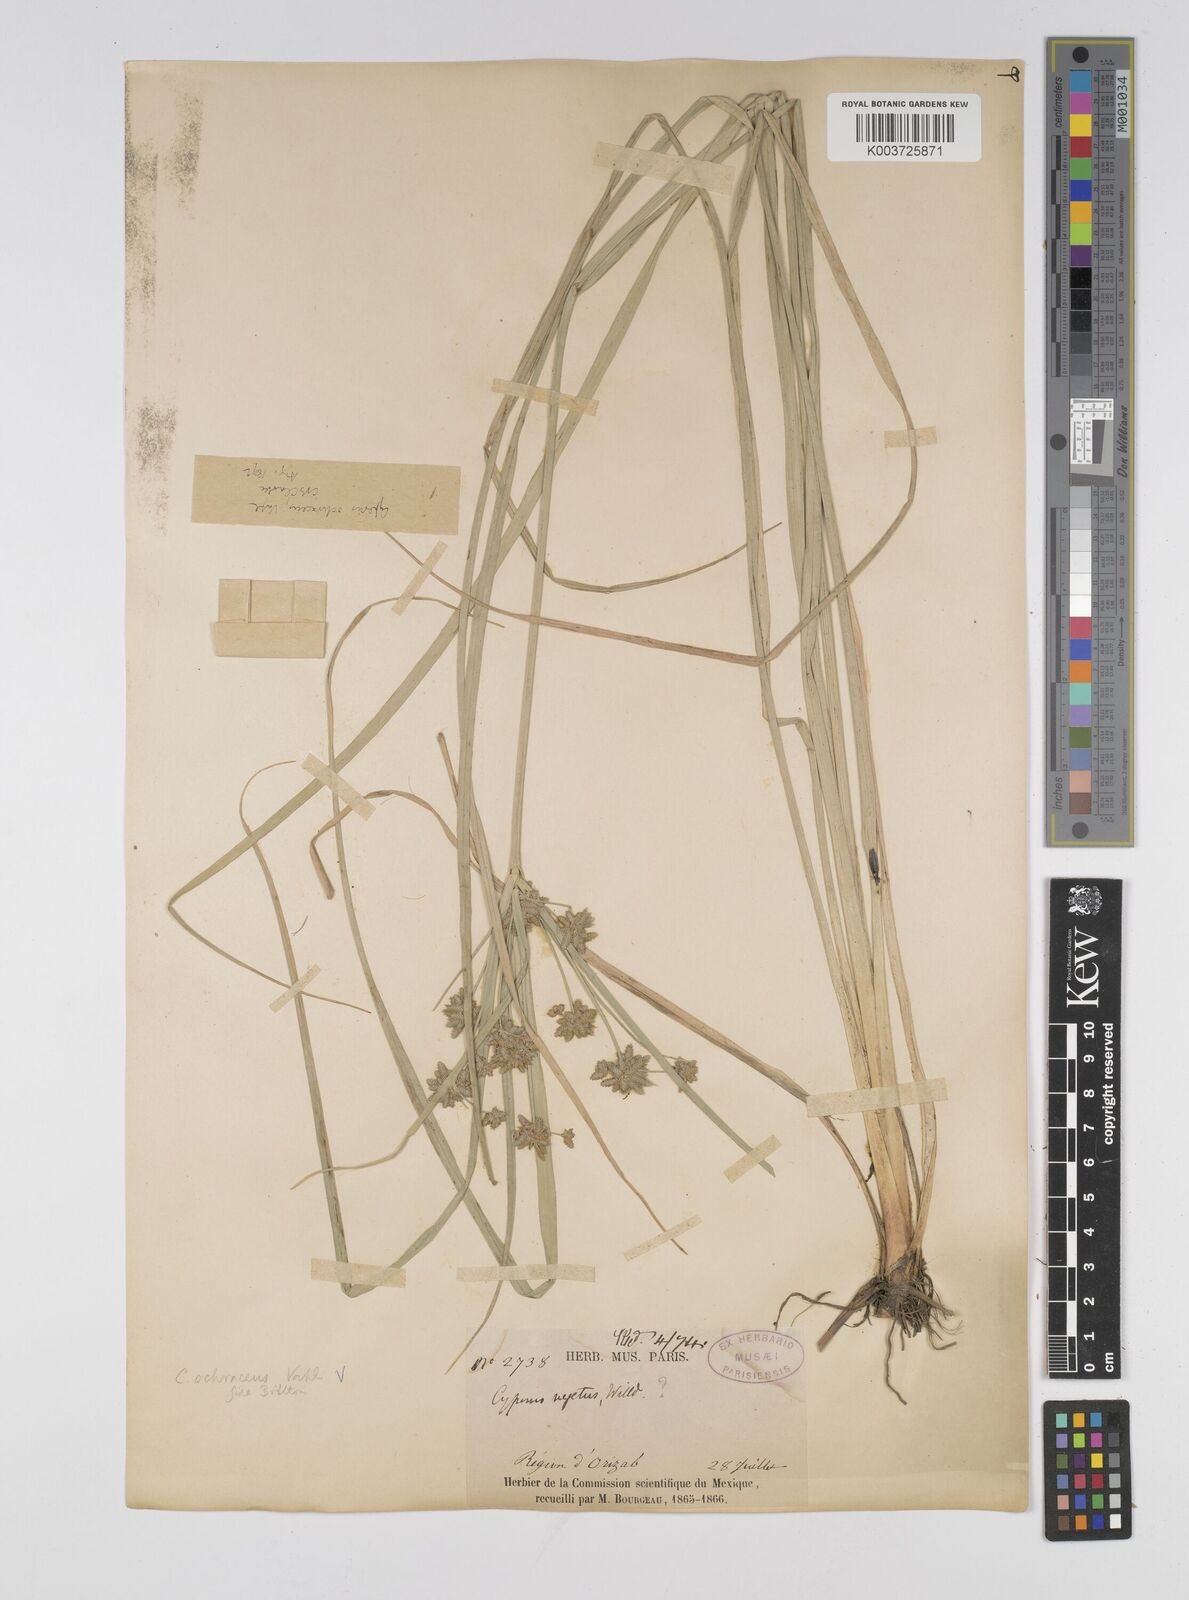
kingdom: Plantae
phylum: Tracheophyta
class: Liliopsida
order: Poales
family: Cyperaceae
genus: Cyperus
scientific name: Cyperus ochraceus
